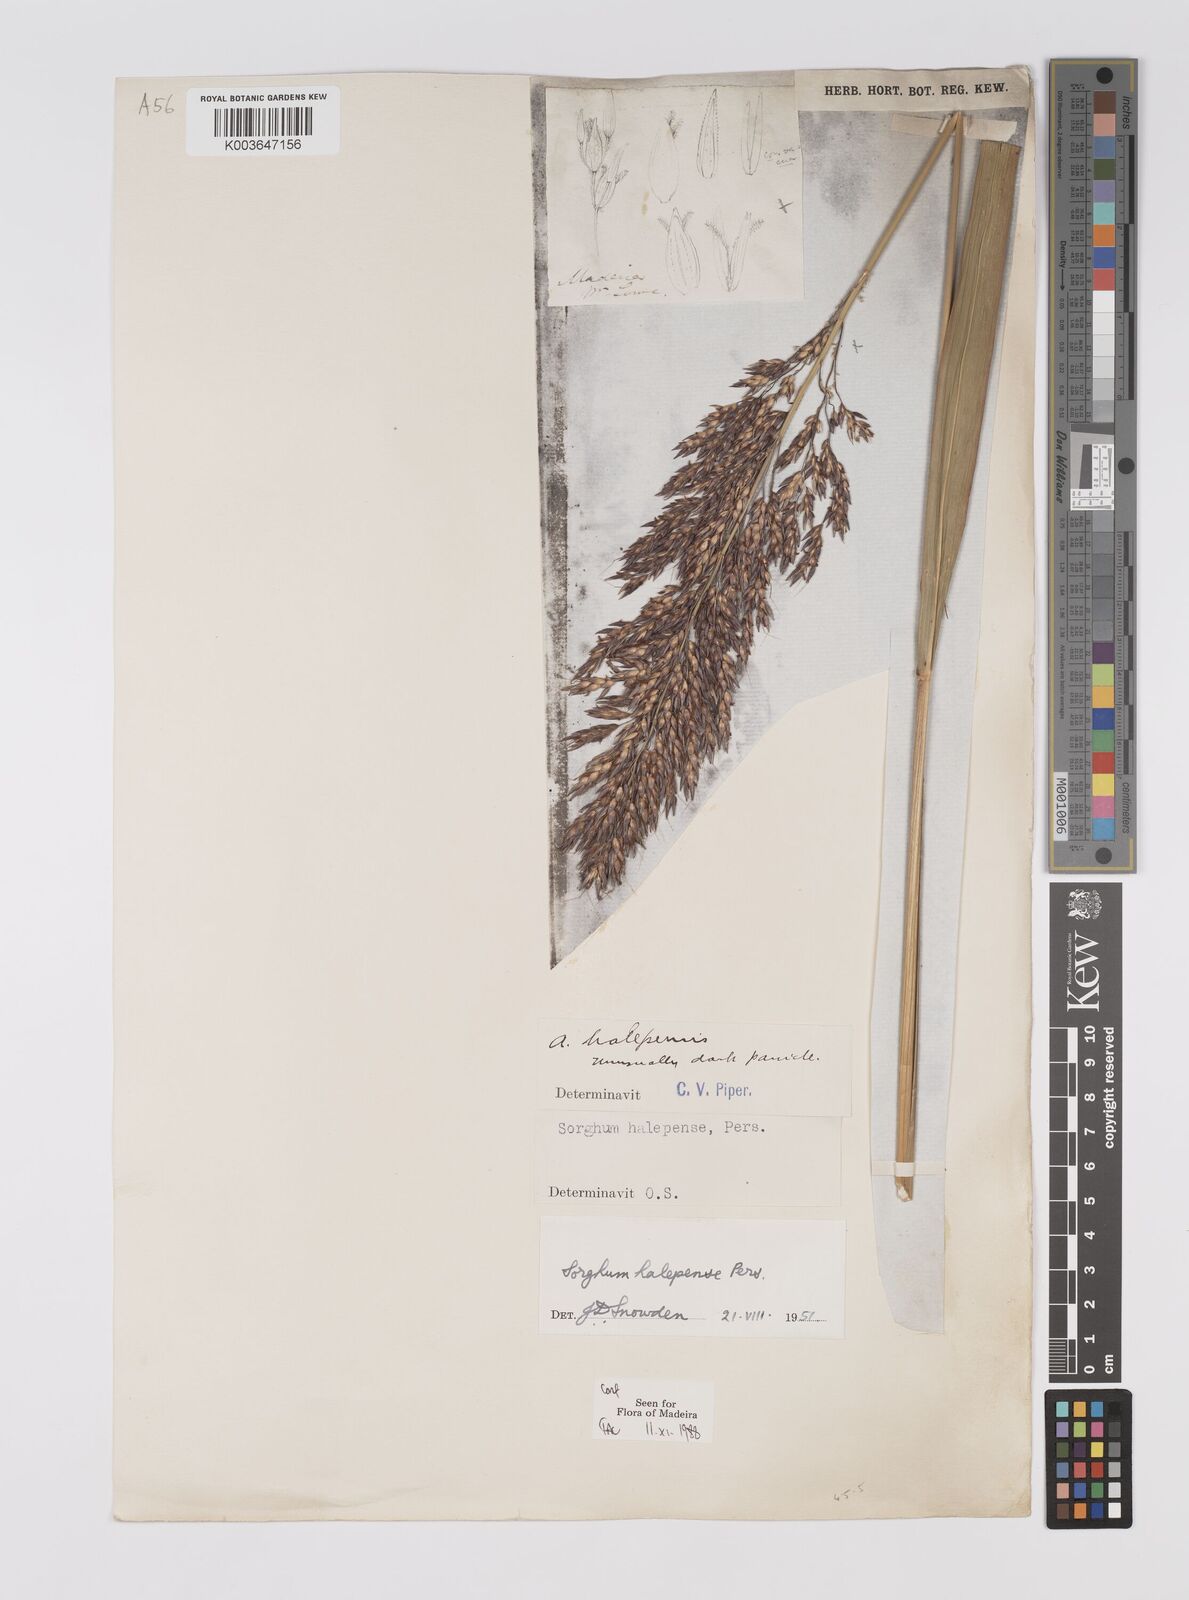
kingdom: Plantae
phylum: Tracheophyta
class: Liliopsida
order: Poales
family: Poaceae
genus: Sorghum
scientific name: Sorghum halepense
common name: Johnson-grass
